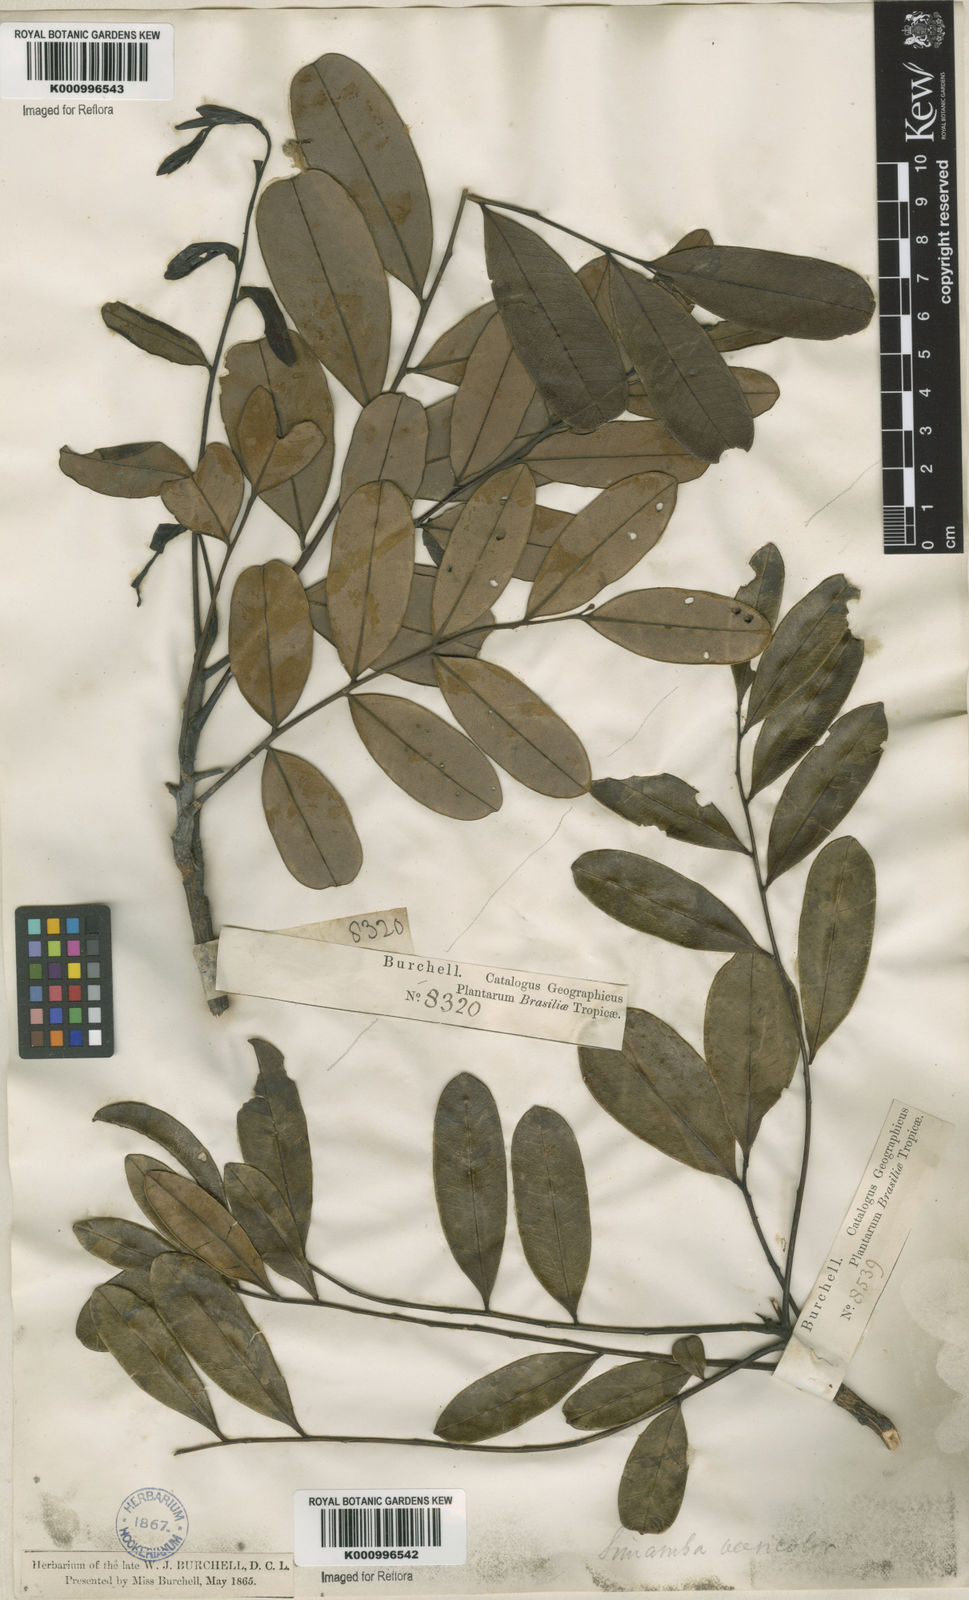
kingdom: Plantae
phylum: Tracheophyta
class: Magnoliopsida
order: Sapindales
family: Simaroubaceae
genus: Simarouba
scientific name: Simarouba versicolor
